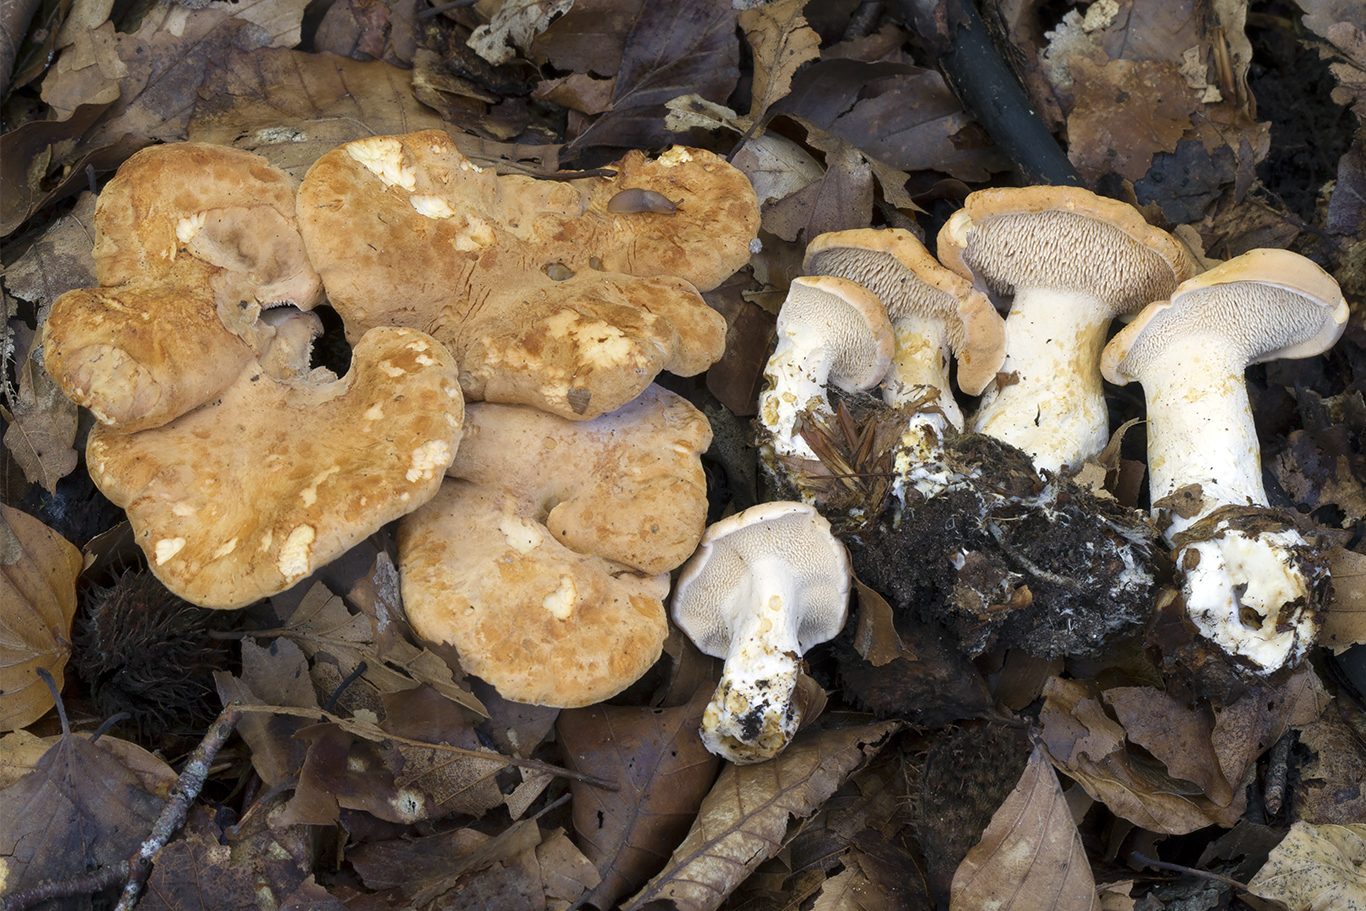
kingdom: Fungi
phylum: Basidiomycota
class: Agaricomycetes
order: Cantharellales
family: Hydnaceae
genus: Hydnum
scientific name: Hydnum slovenicum
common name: slovensk pigsvamp
